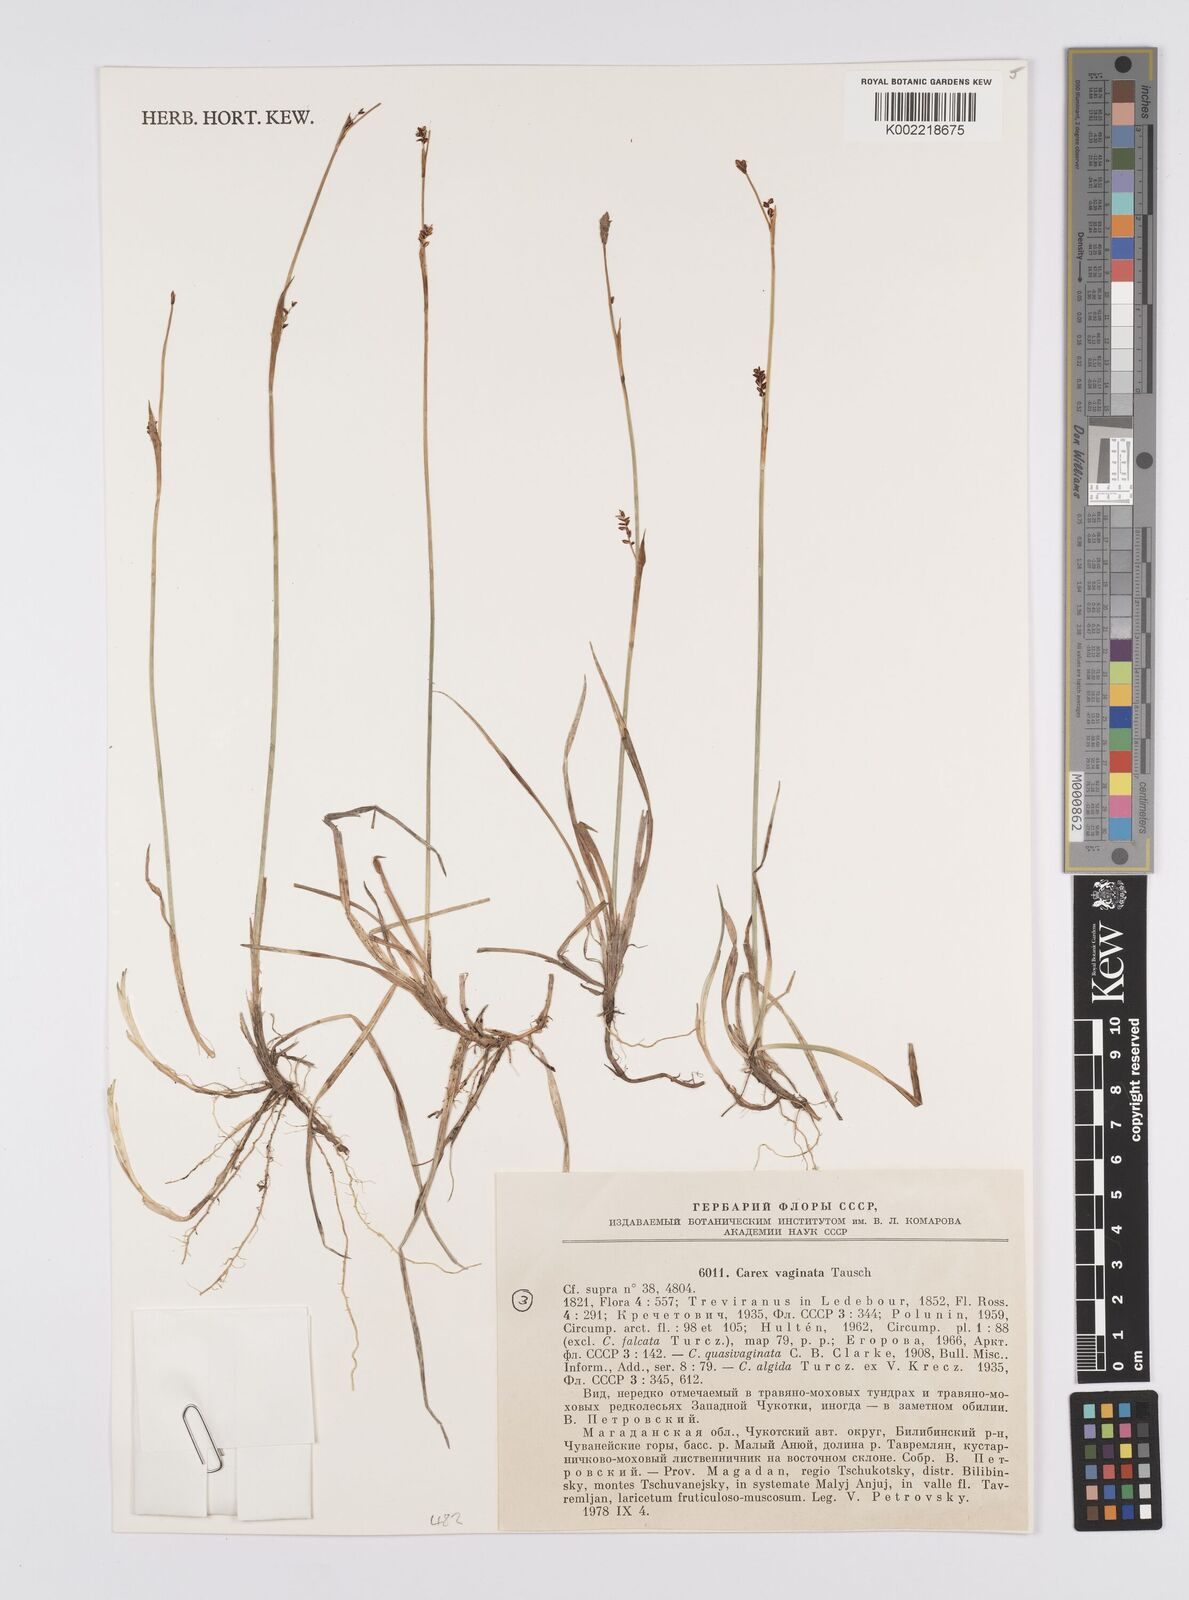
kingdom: Plantae
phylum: Tracheophyta
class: Liliopsida
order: Poales
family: Cyperaceae
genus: Carex
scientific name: Carex vaginata
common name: Sheathed sedge
